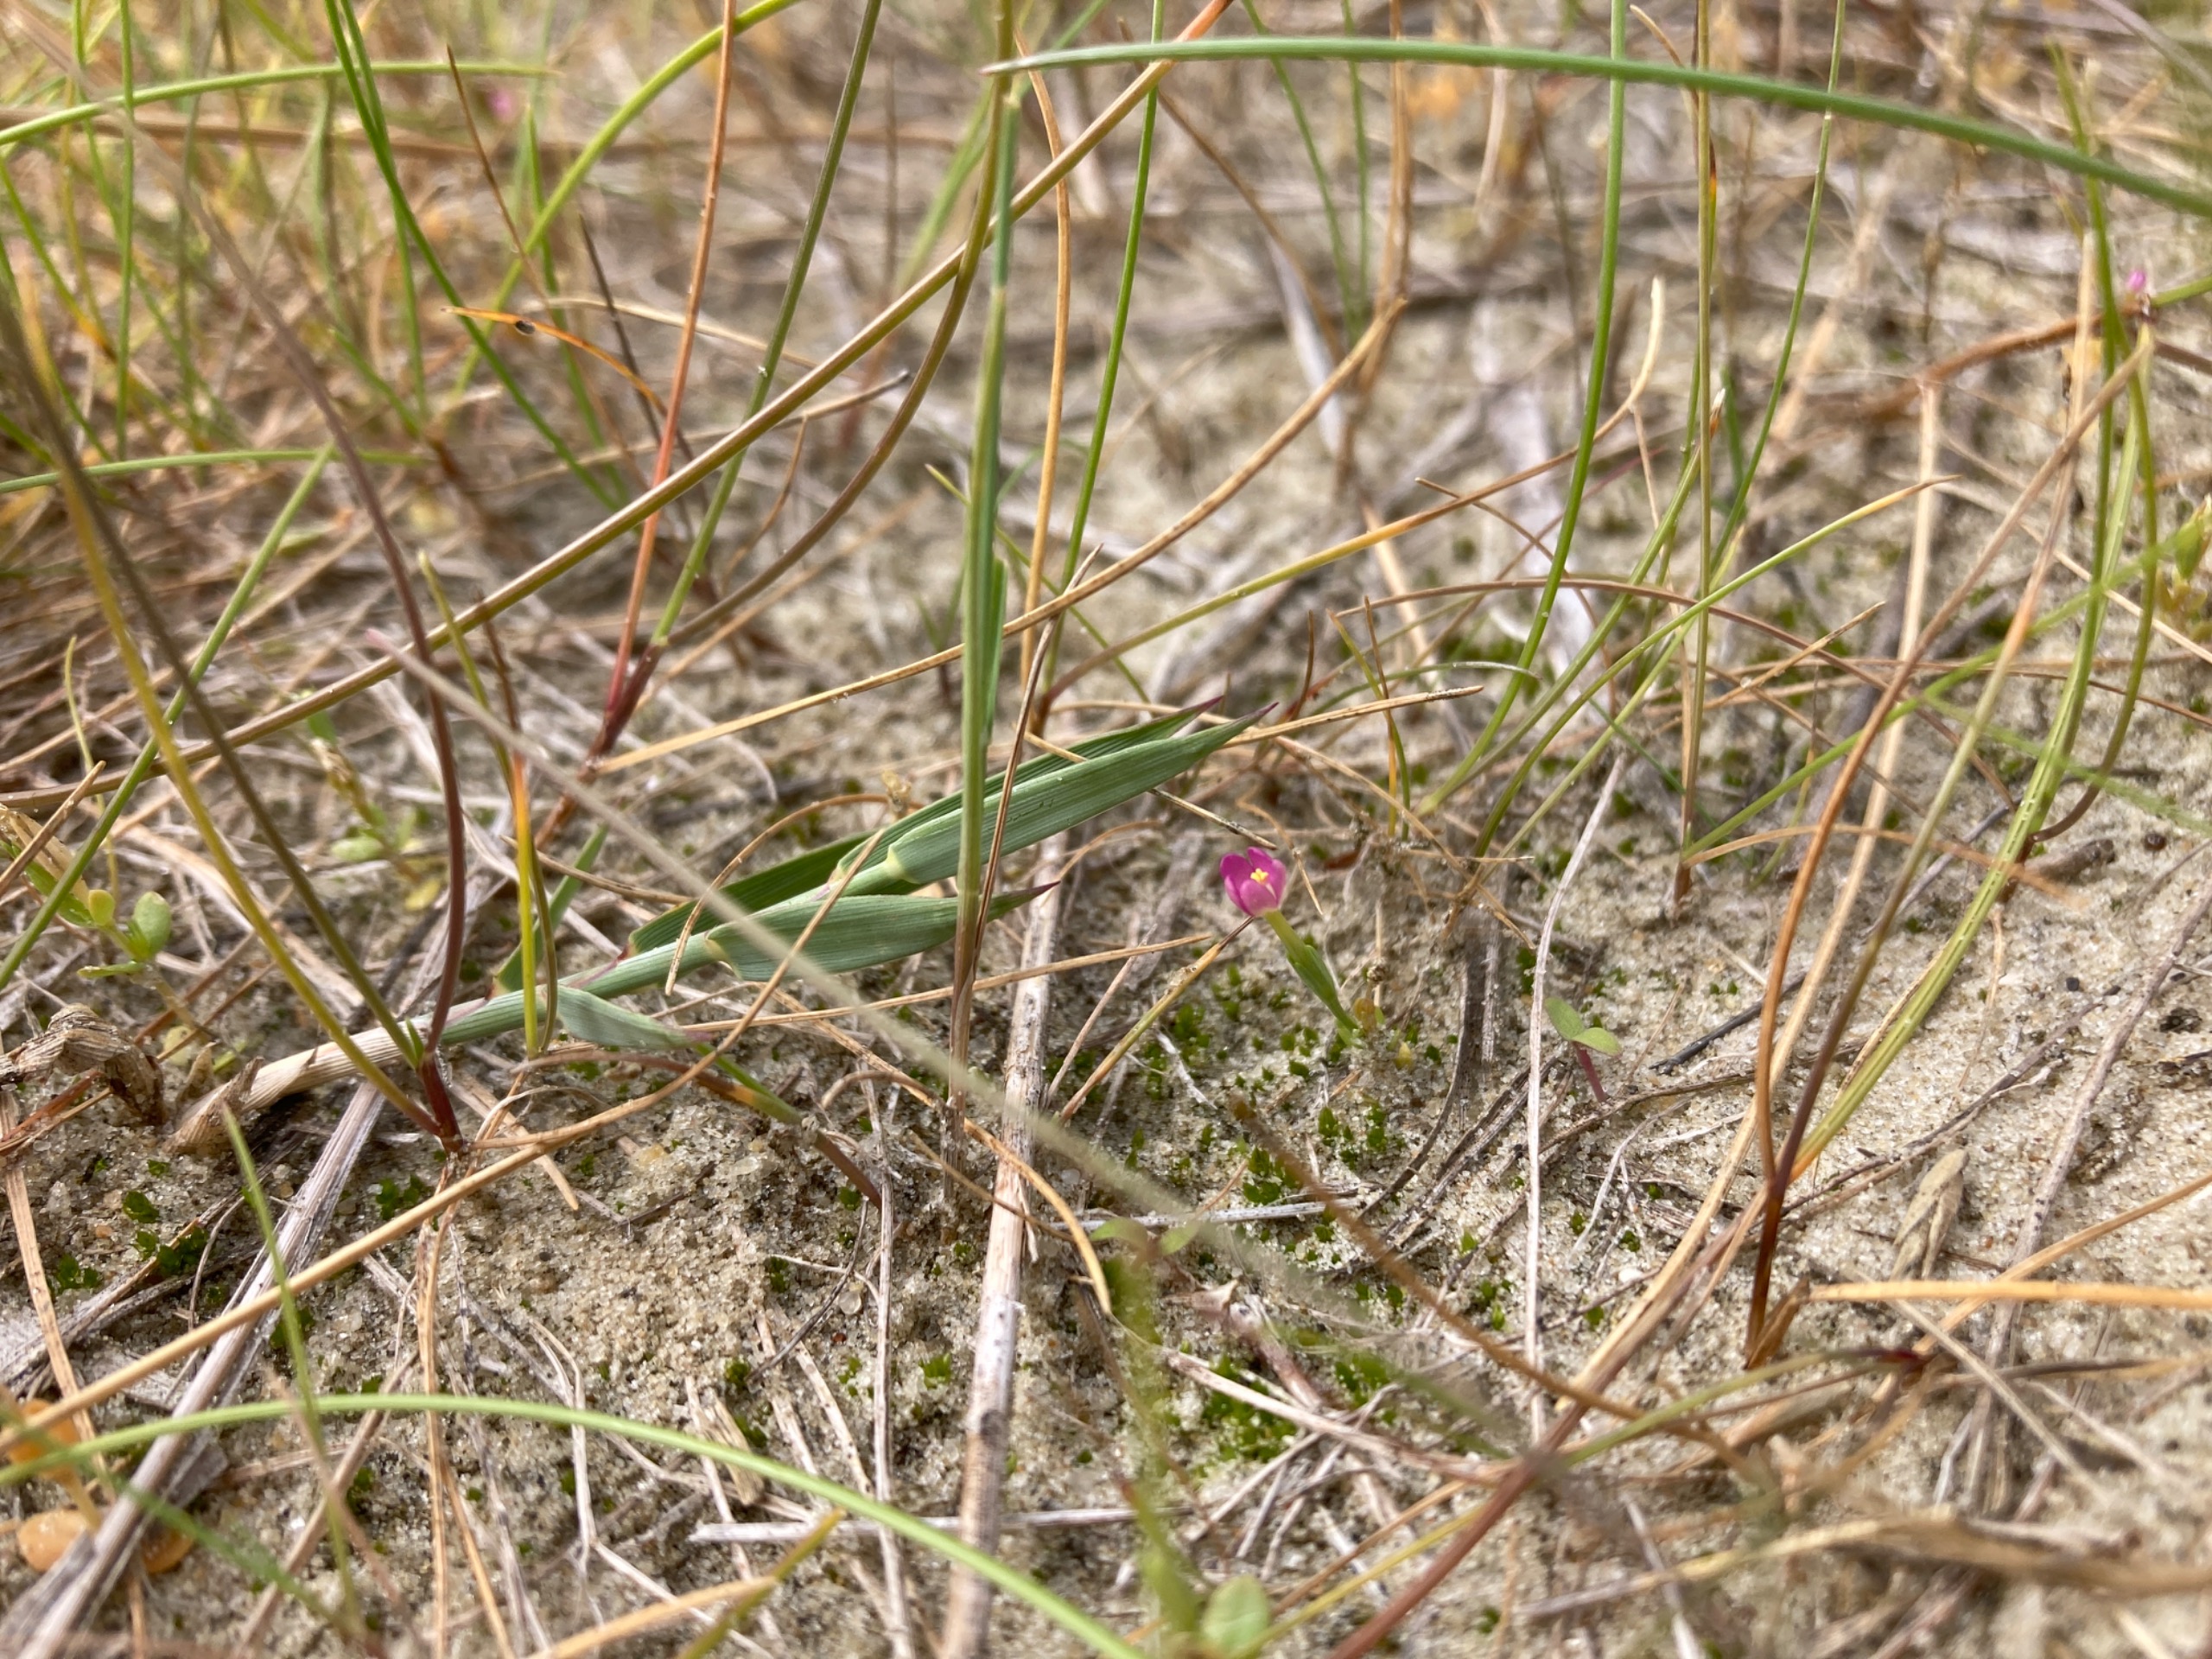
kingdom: Plantae
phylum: Tracheophyta
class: Magnoliopsida
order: Gentianales
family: Gentianaceae
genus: Centaurium
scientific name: Centaurium pulchellum
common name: Liden tusindgylden
